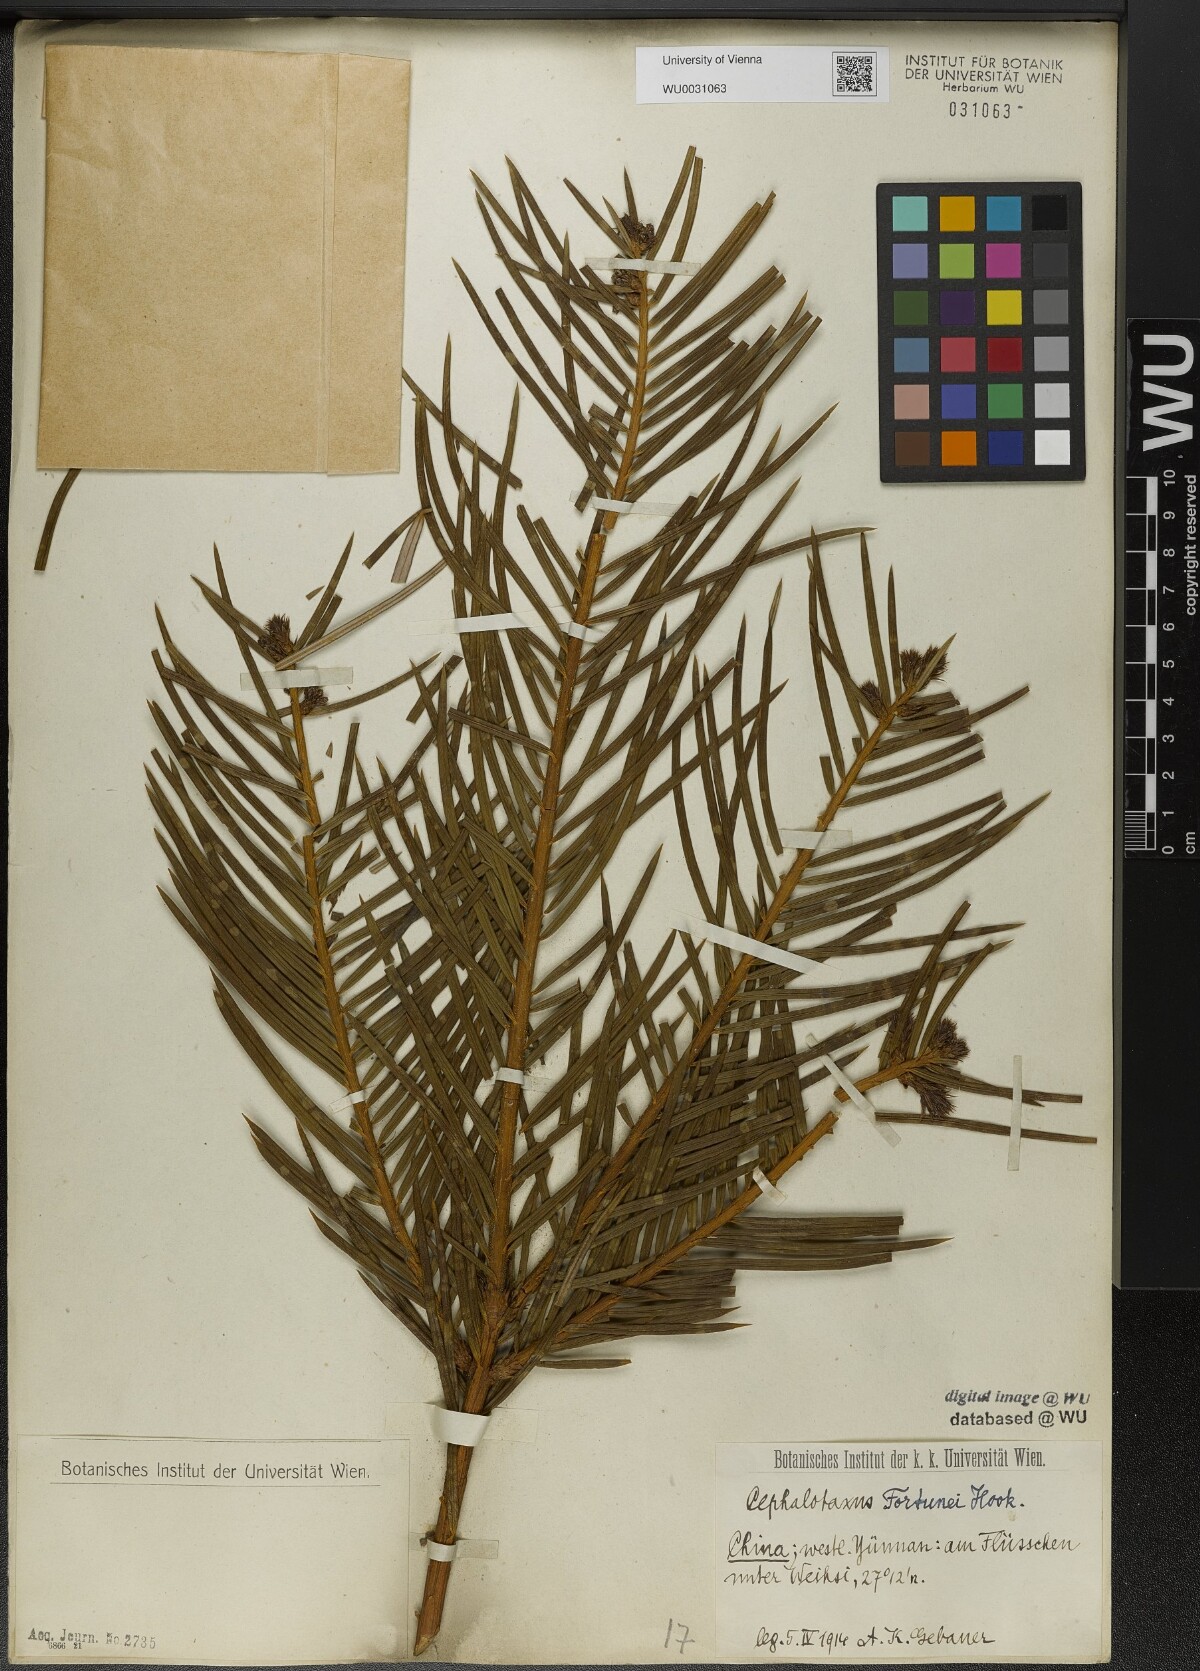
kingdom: Plantae
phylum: Tracheophyta
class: Pinopsida
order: Pinales
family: Cephalotaxaceae
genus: Cephalotaxus
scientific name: Cephalotaxus fortunei
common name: Chinese plum-yew
